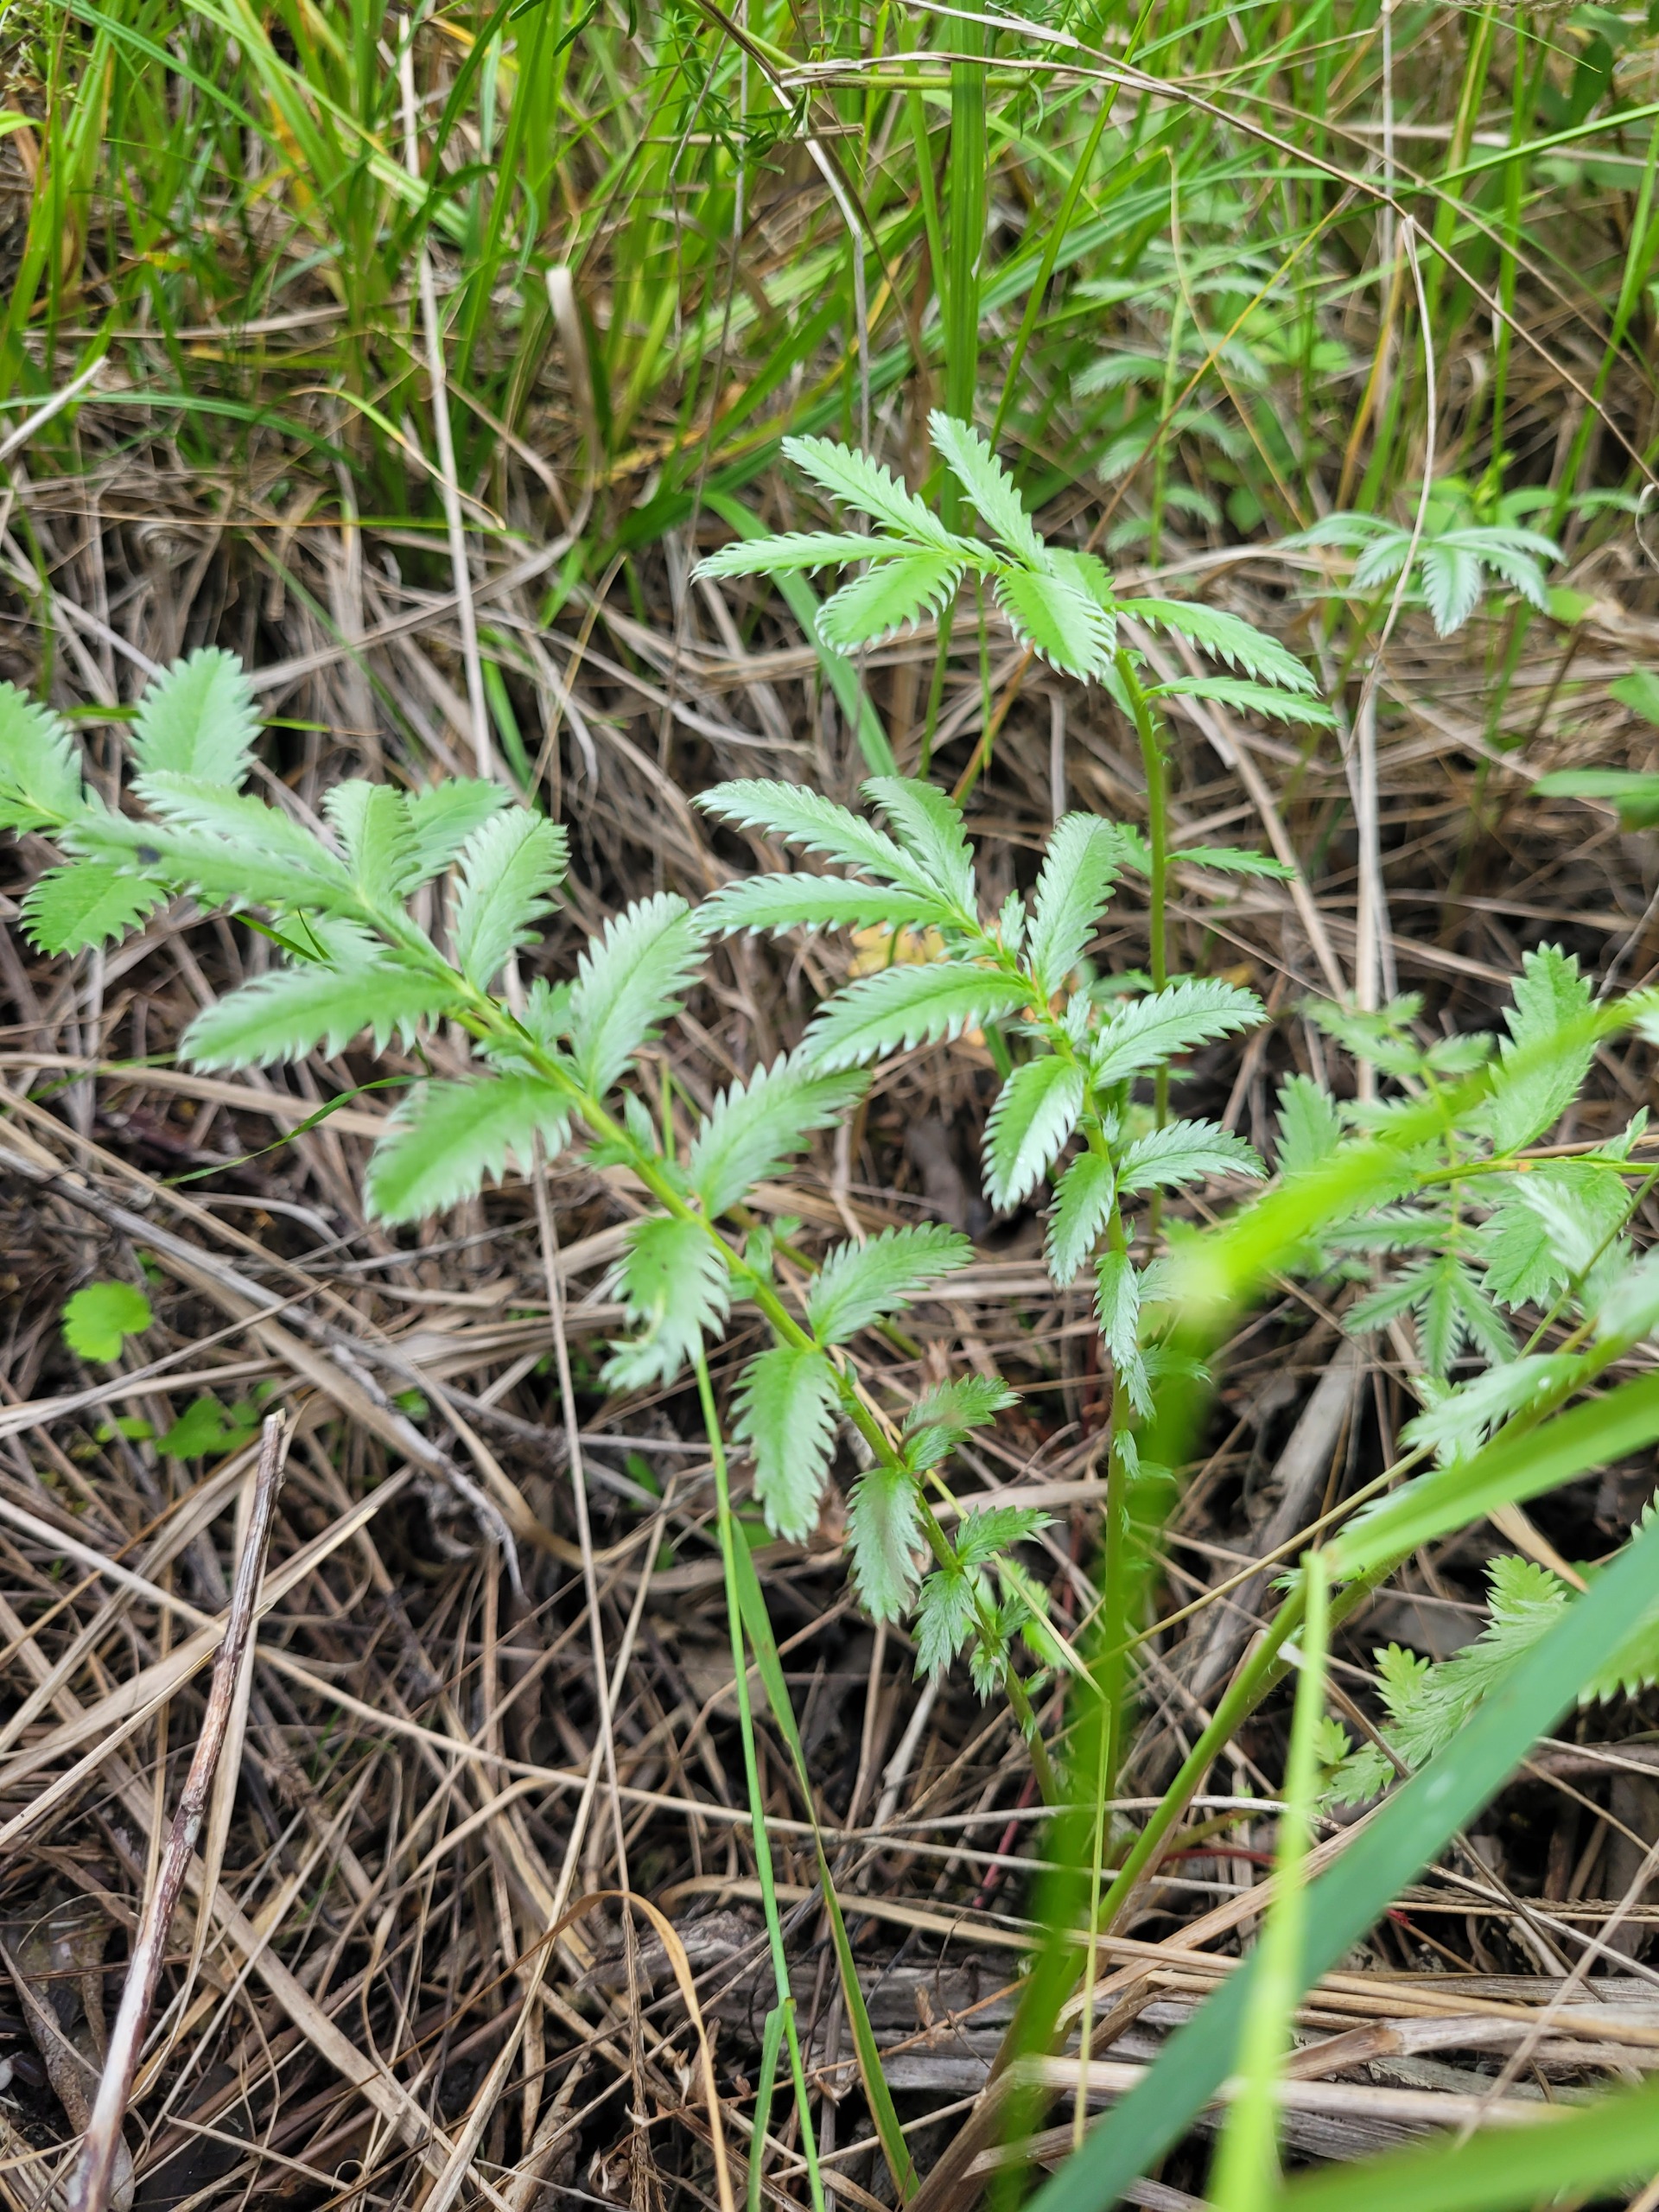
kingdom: Plantae
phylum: Tracheophyta
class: Magnoliopsida
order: Rosales
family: Rosaceae
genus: Argentina
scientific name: Argentina anserina
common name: Gåsepotentil
